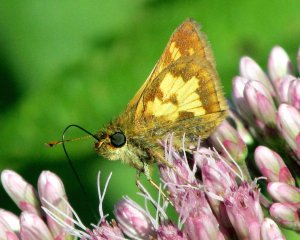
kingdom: Animalia
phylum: Arthropoda
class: Insecta
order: Lepidoptera
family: Hesperiidae
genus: Polites
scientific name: Polites coras
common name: Peck's Skipper
